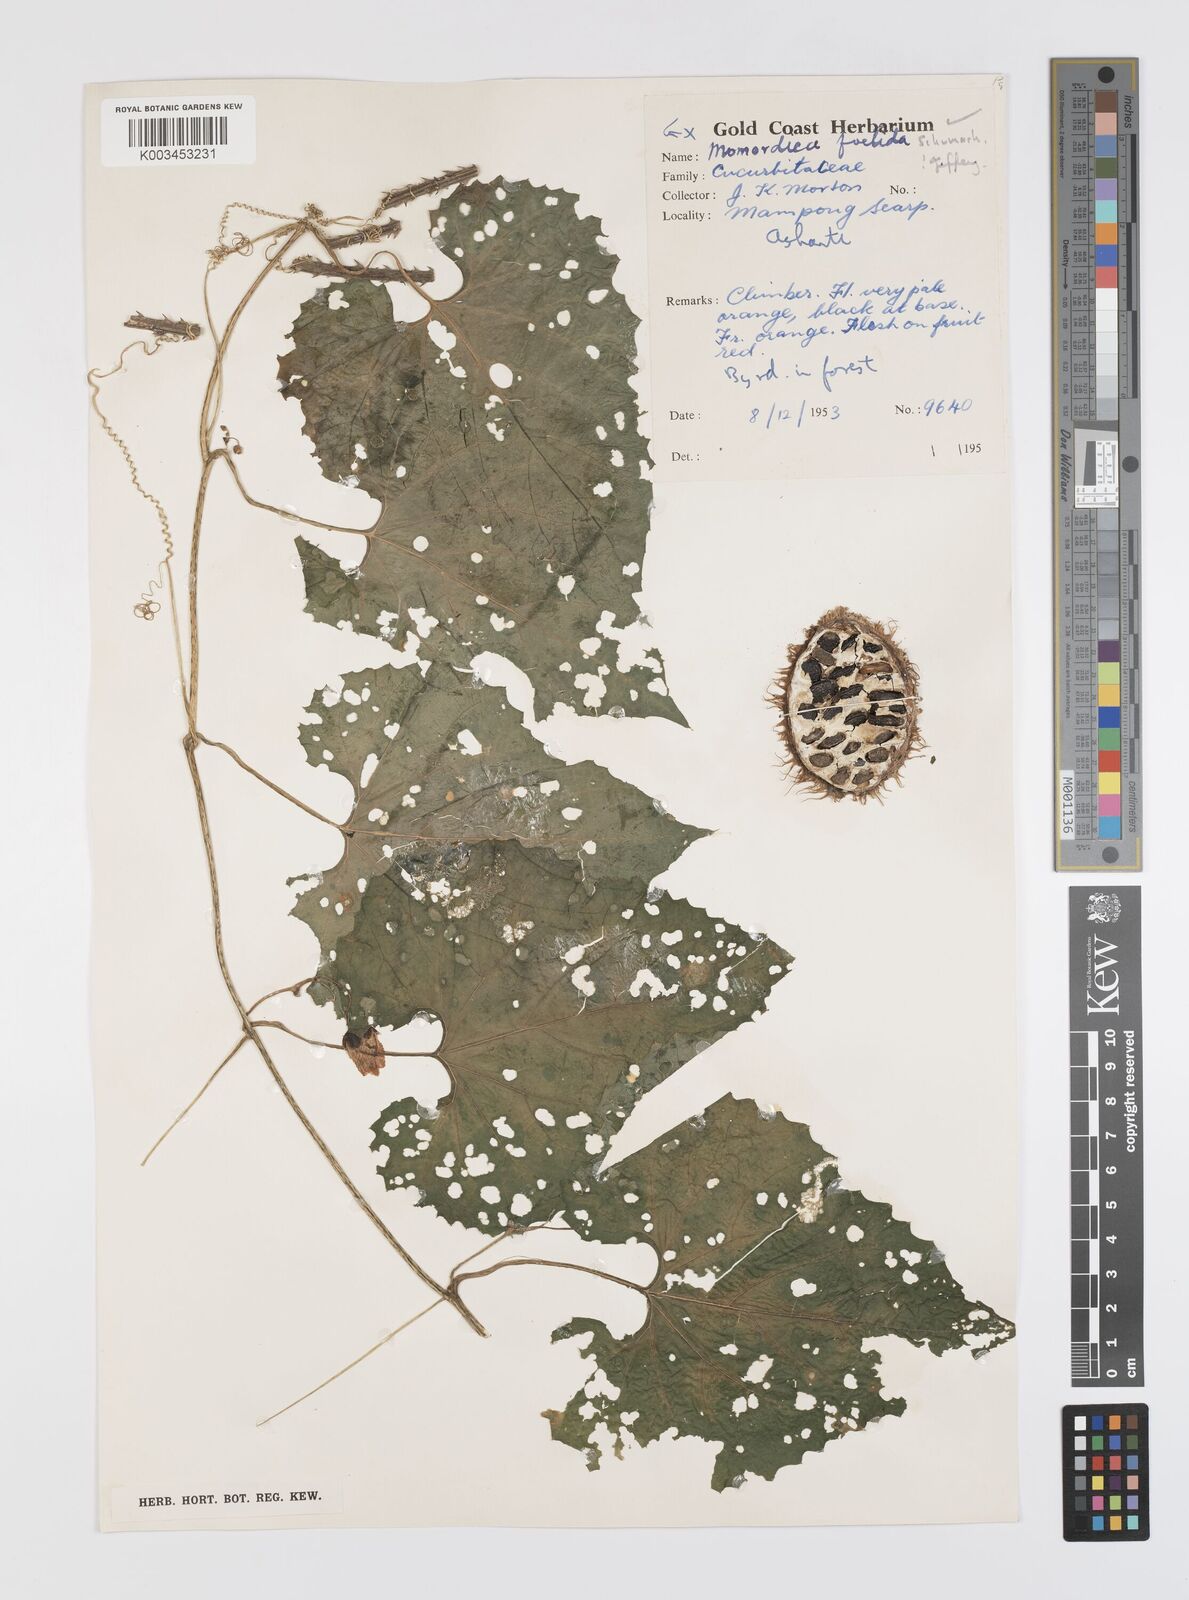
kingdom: Plantae
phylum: Tracheophyta
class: Magnoliopsida
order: Cucurbitales
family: Cucurbitaceae
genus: Momordica
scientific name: Momordica foetida
